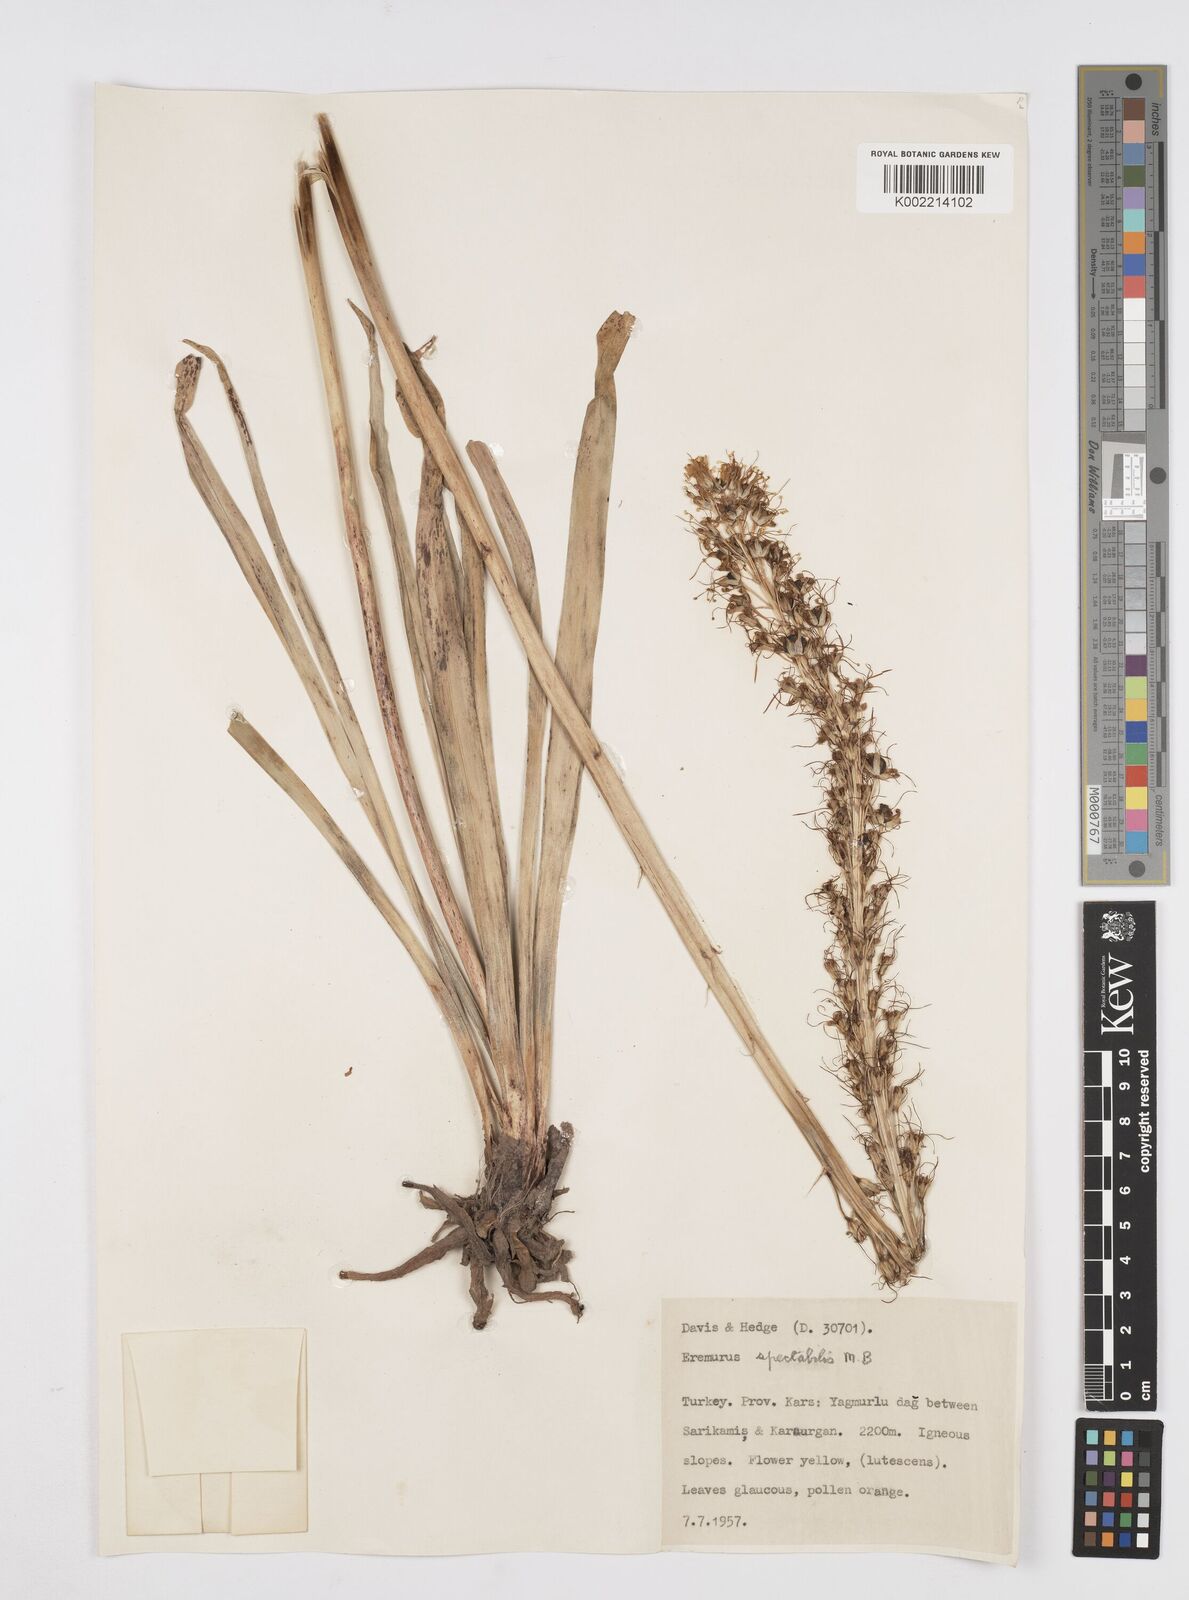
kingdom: Plantae
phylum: Tracheophyta
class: Liliopsida
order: Asparagales
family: Asphodelaceae
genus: Eremurus
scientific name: Eremurus spectabilis
